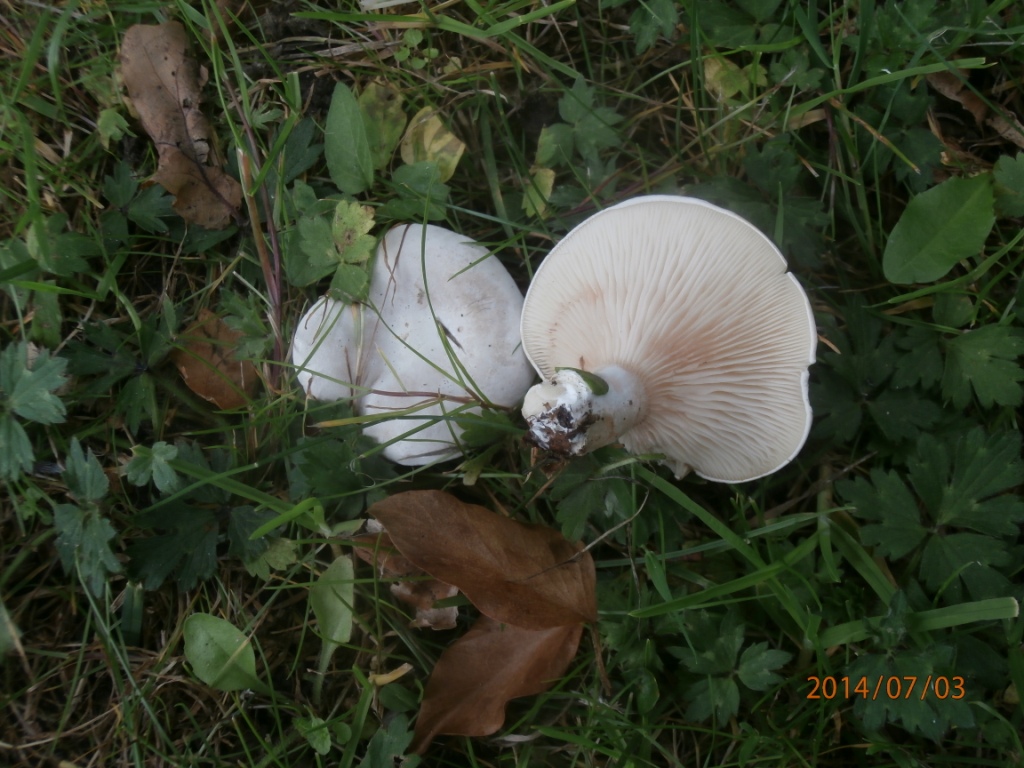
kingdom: Fungi
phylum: Basidiomycota
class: Agaricomycetes
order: Agaricales
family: Entolomataceae
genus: Clitopilus
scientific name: Clitopilus prunulus
